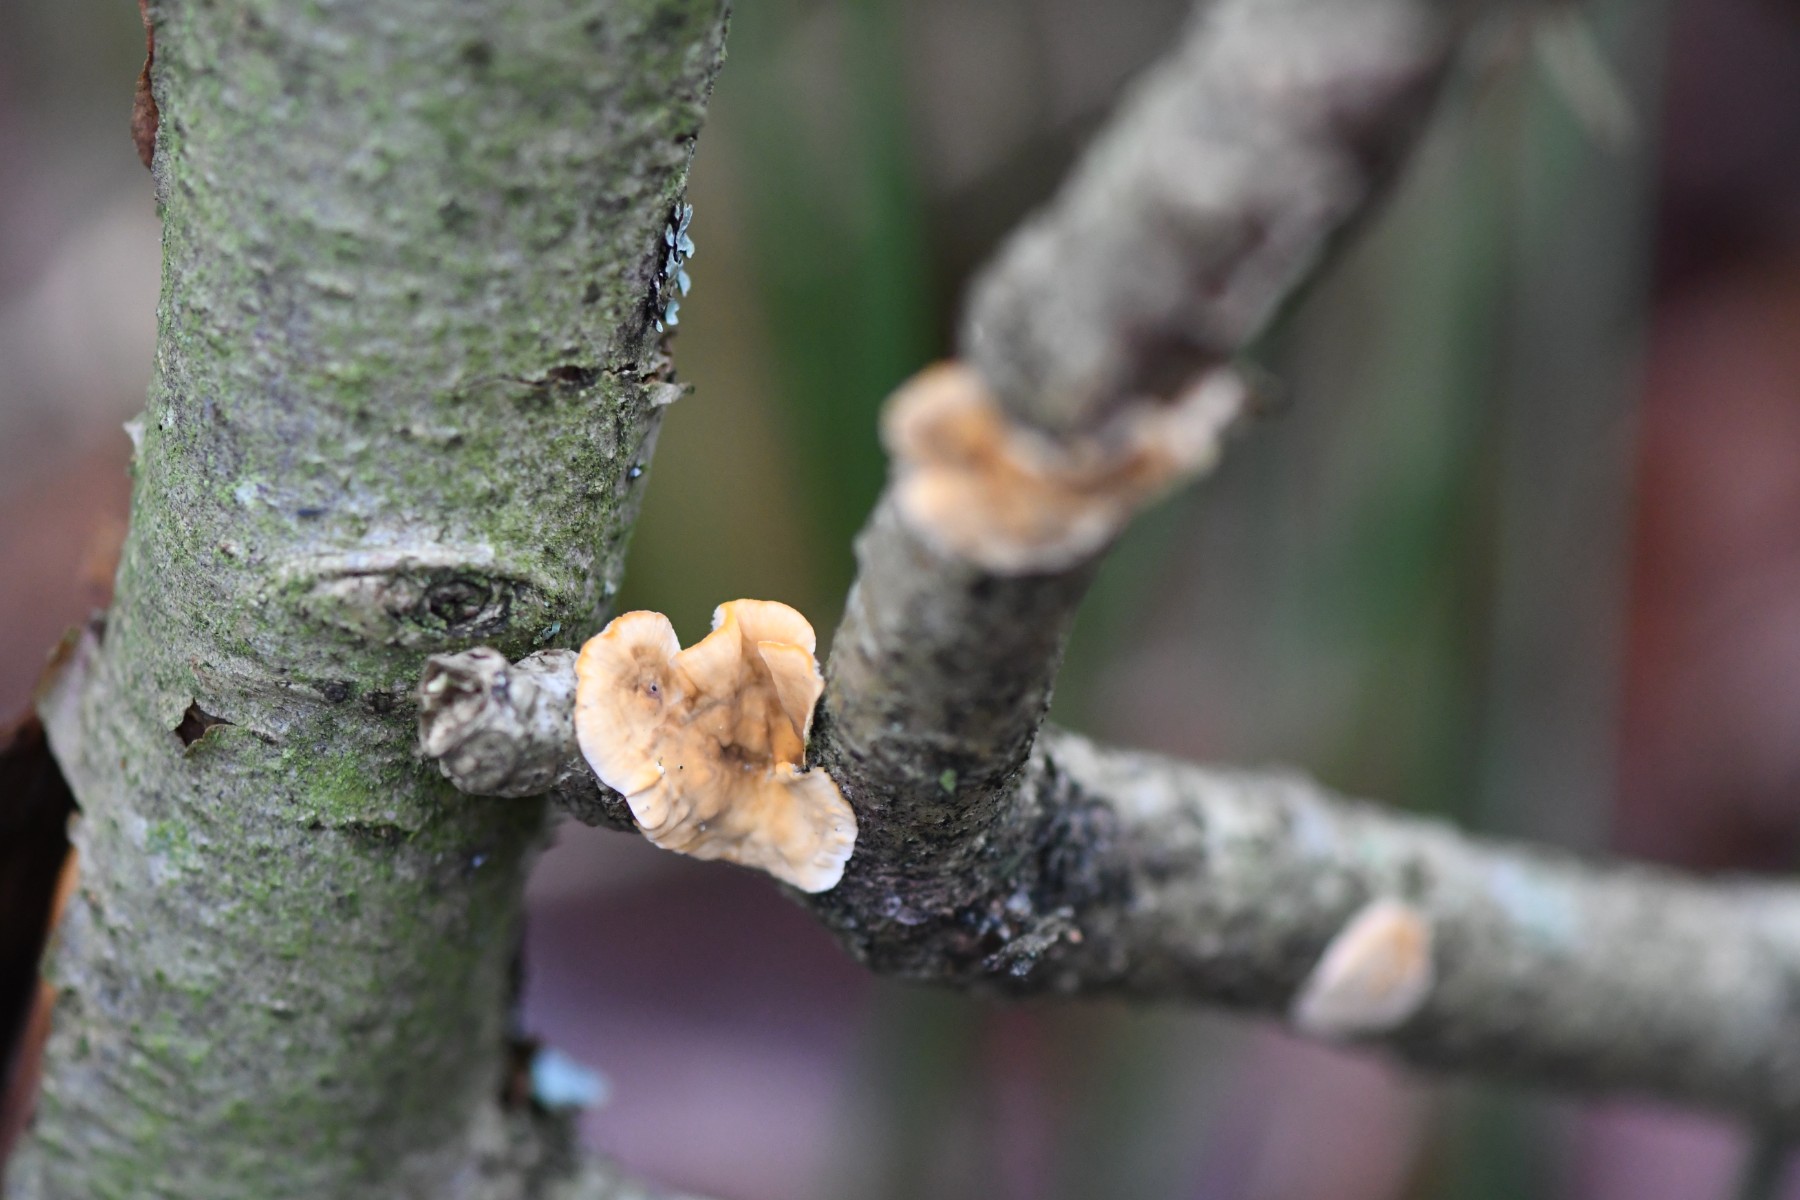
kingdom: Fungi
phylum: Basidiomycota
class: Agaricomycetes
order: Russulales
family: Stereaceae
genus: Stereum
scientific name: Stereum hirsutum
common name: håret lædersvamp
